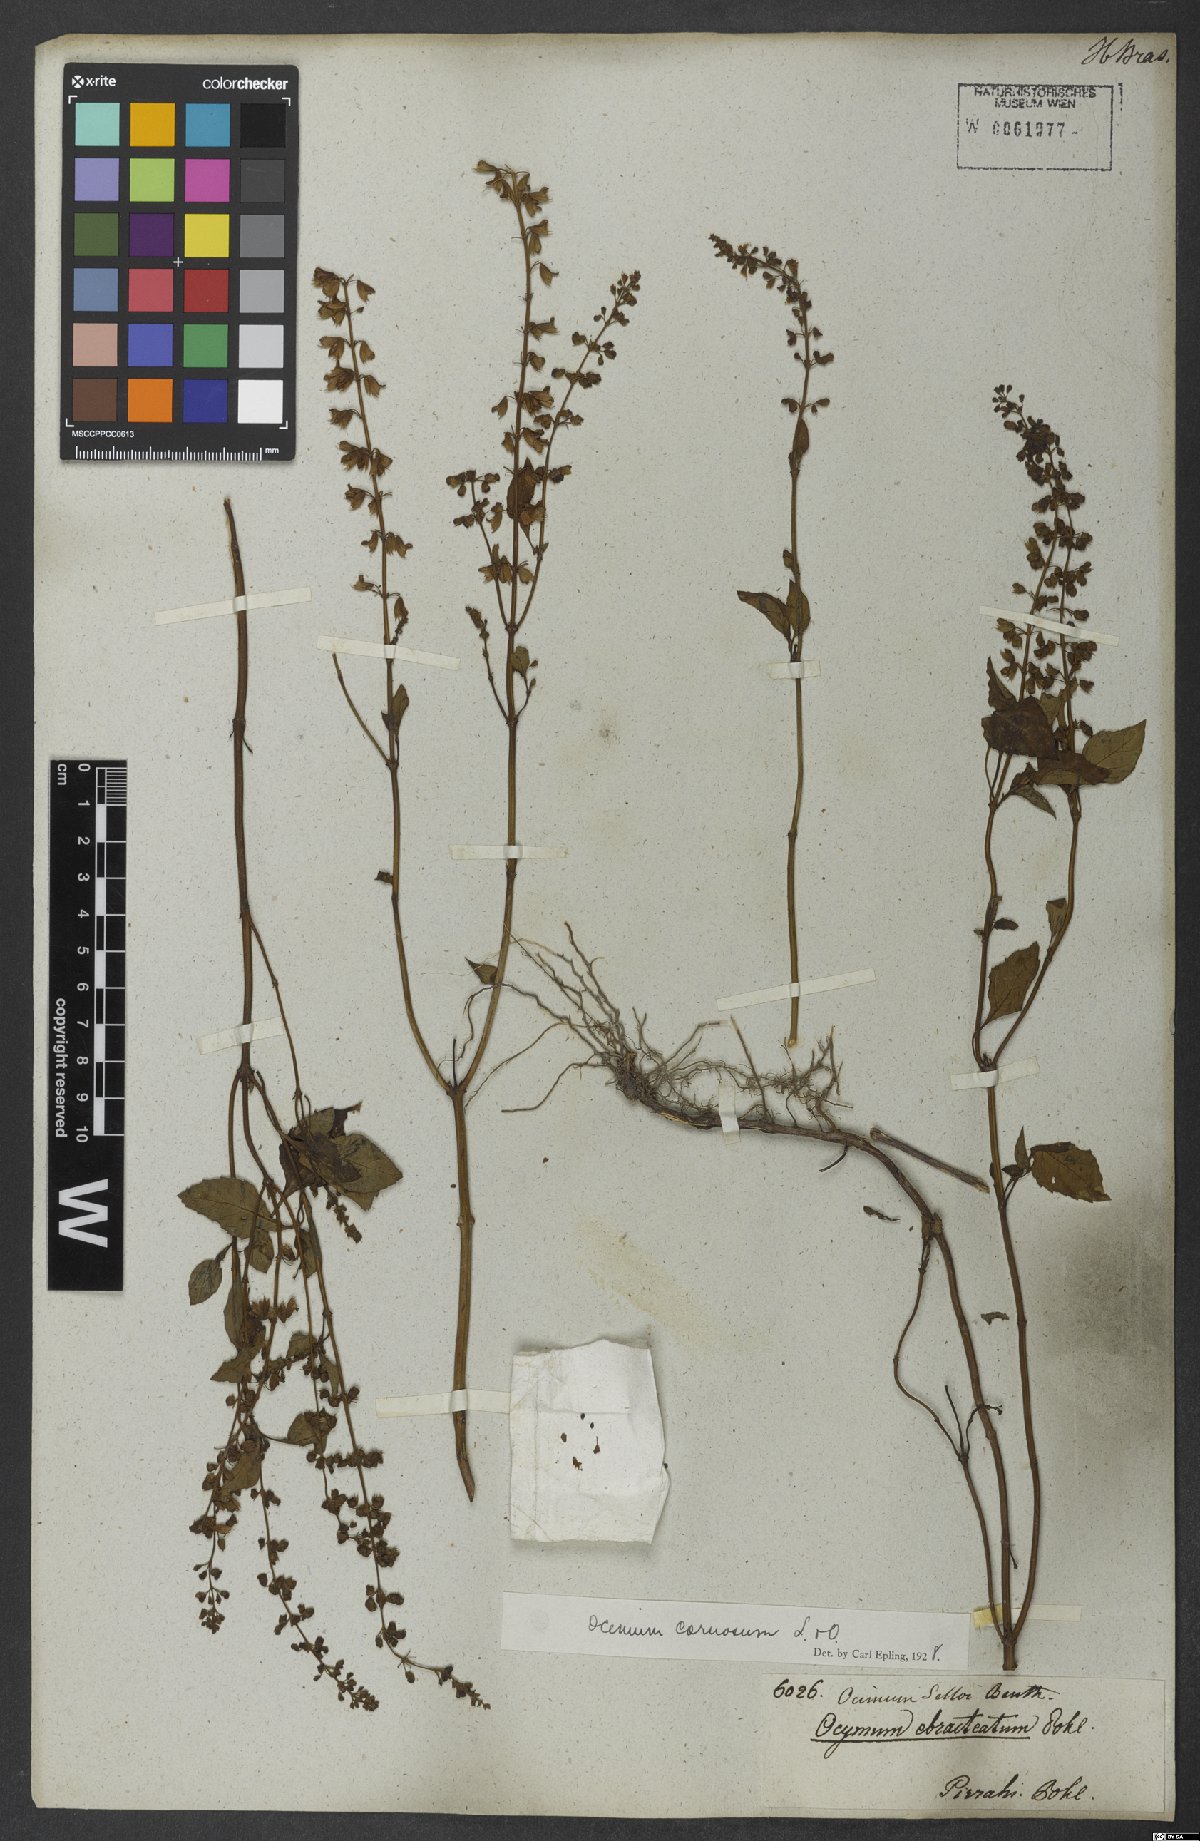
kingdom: Plantae
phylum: Tracheophyta
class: Magnoliopsida
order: Lamiales
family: Lamiaceae
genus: Ocimum
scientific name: Ocimum carnosum
